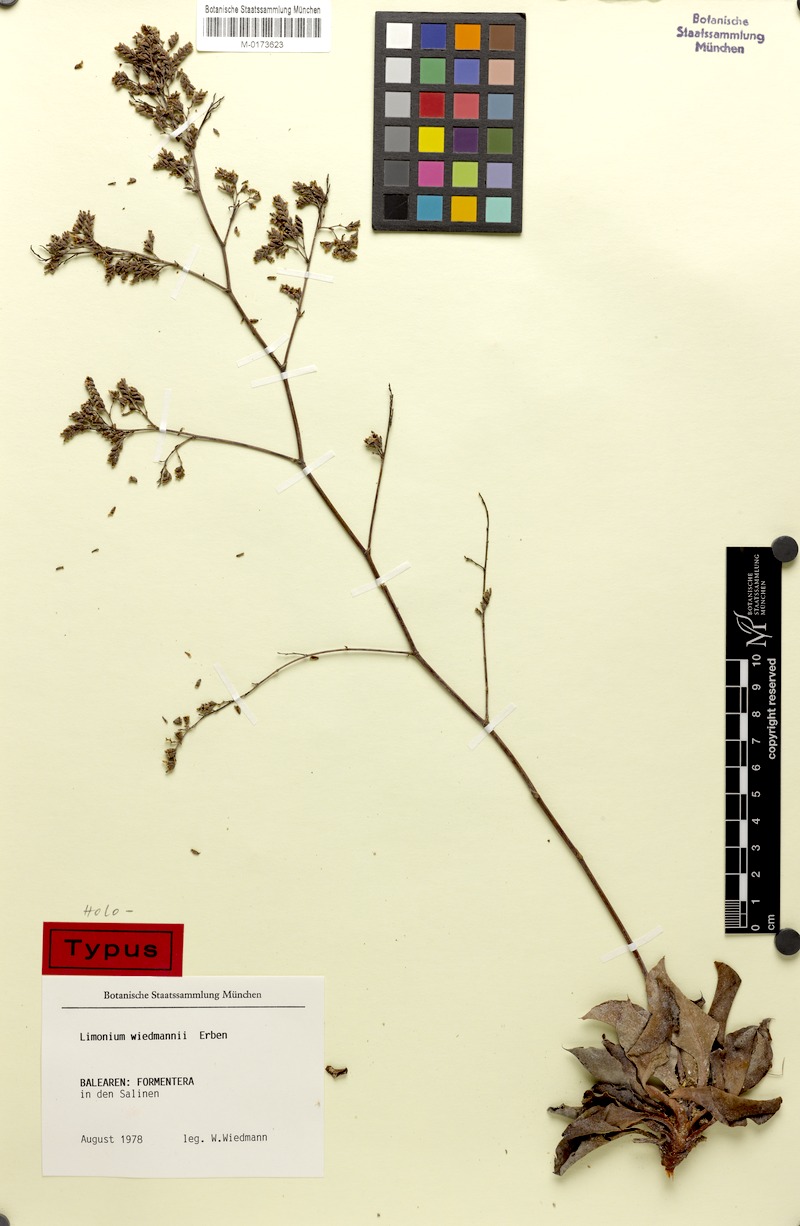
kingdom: Plantae
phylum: Tracheophyta
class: Magnoliopsida
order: Caryophyllales
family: Plumbaginaceae
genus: Limonium
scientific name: Limonium wiedmannii
